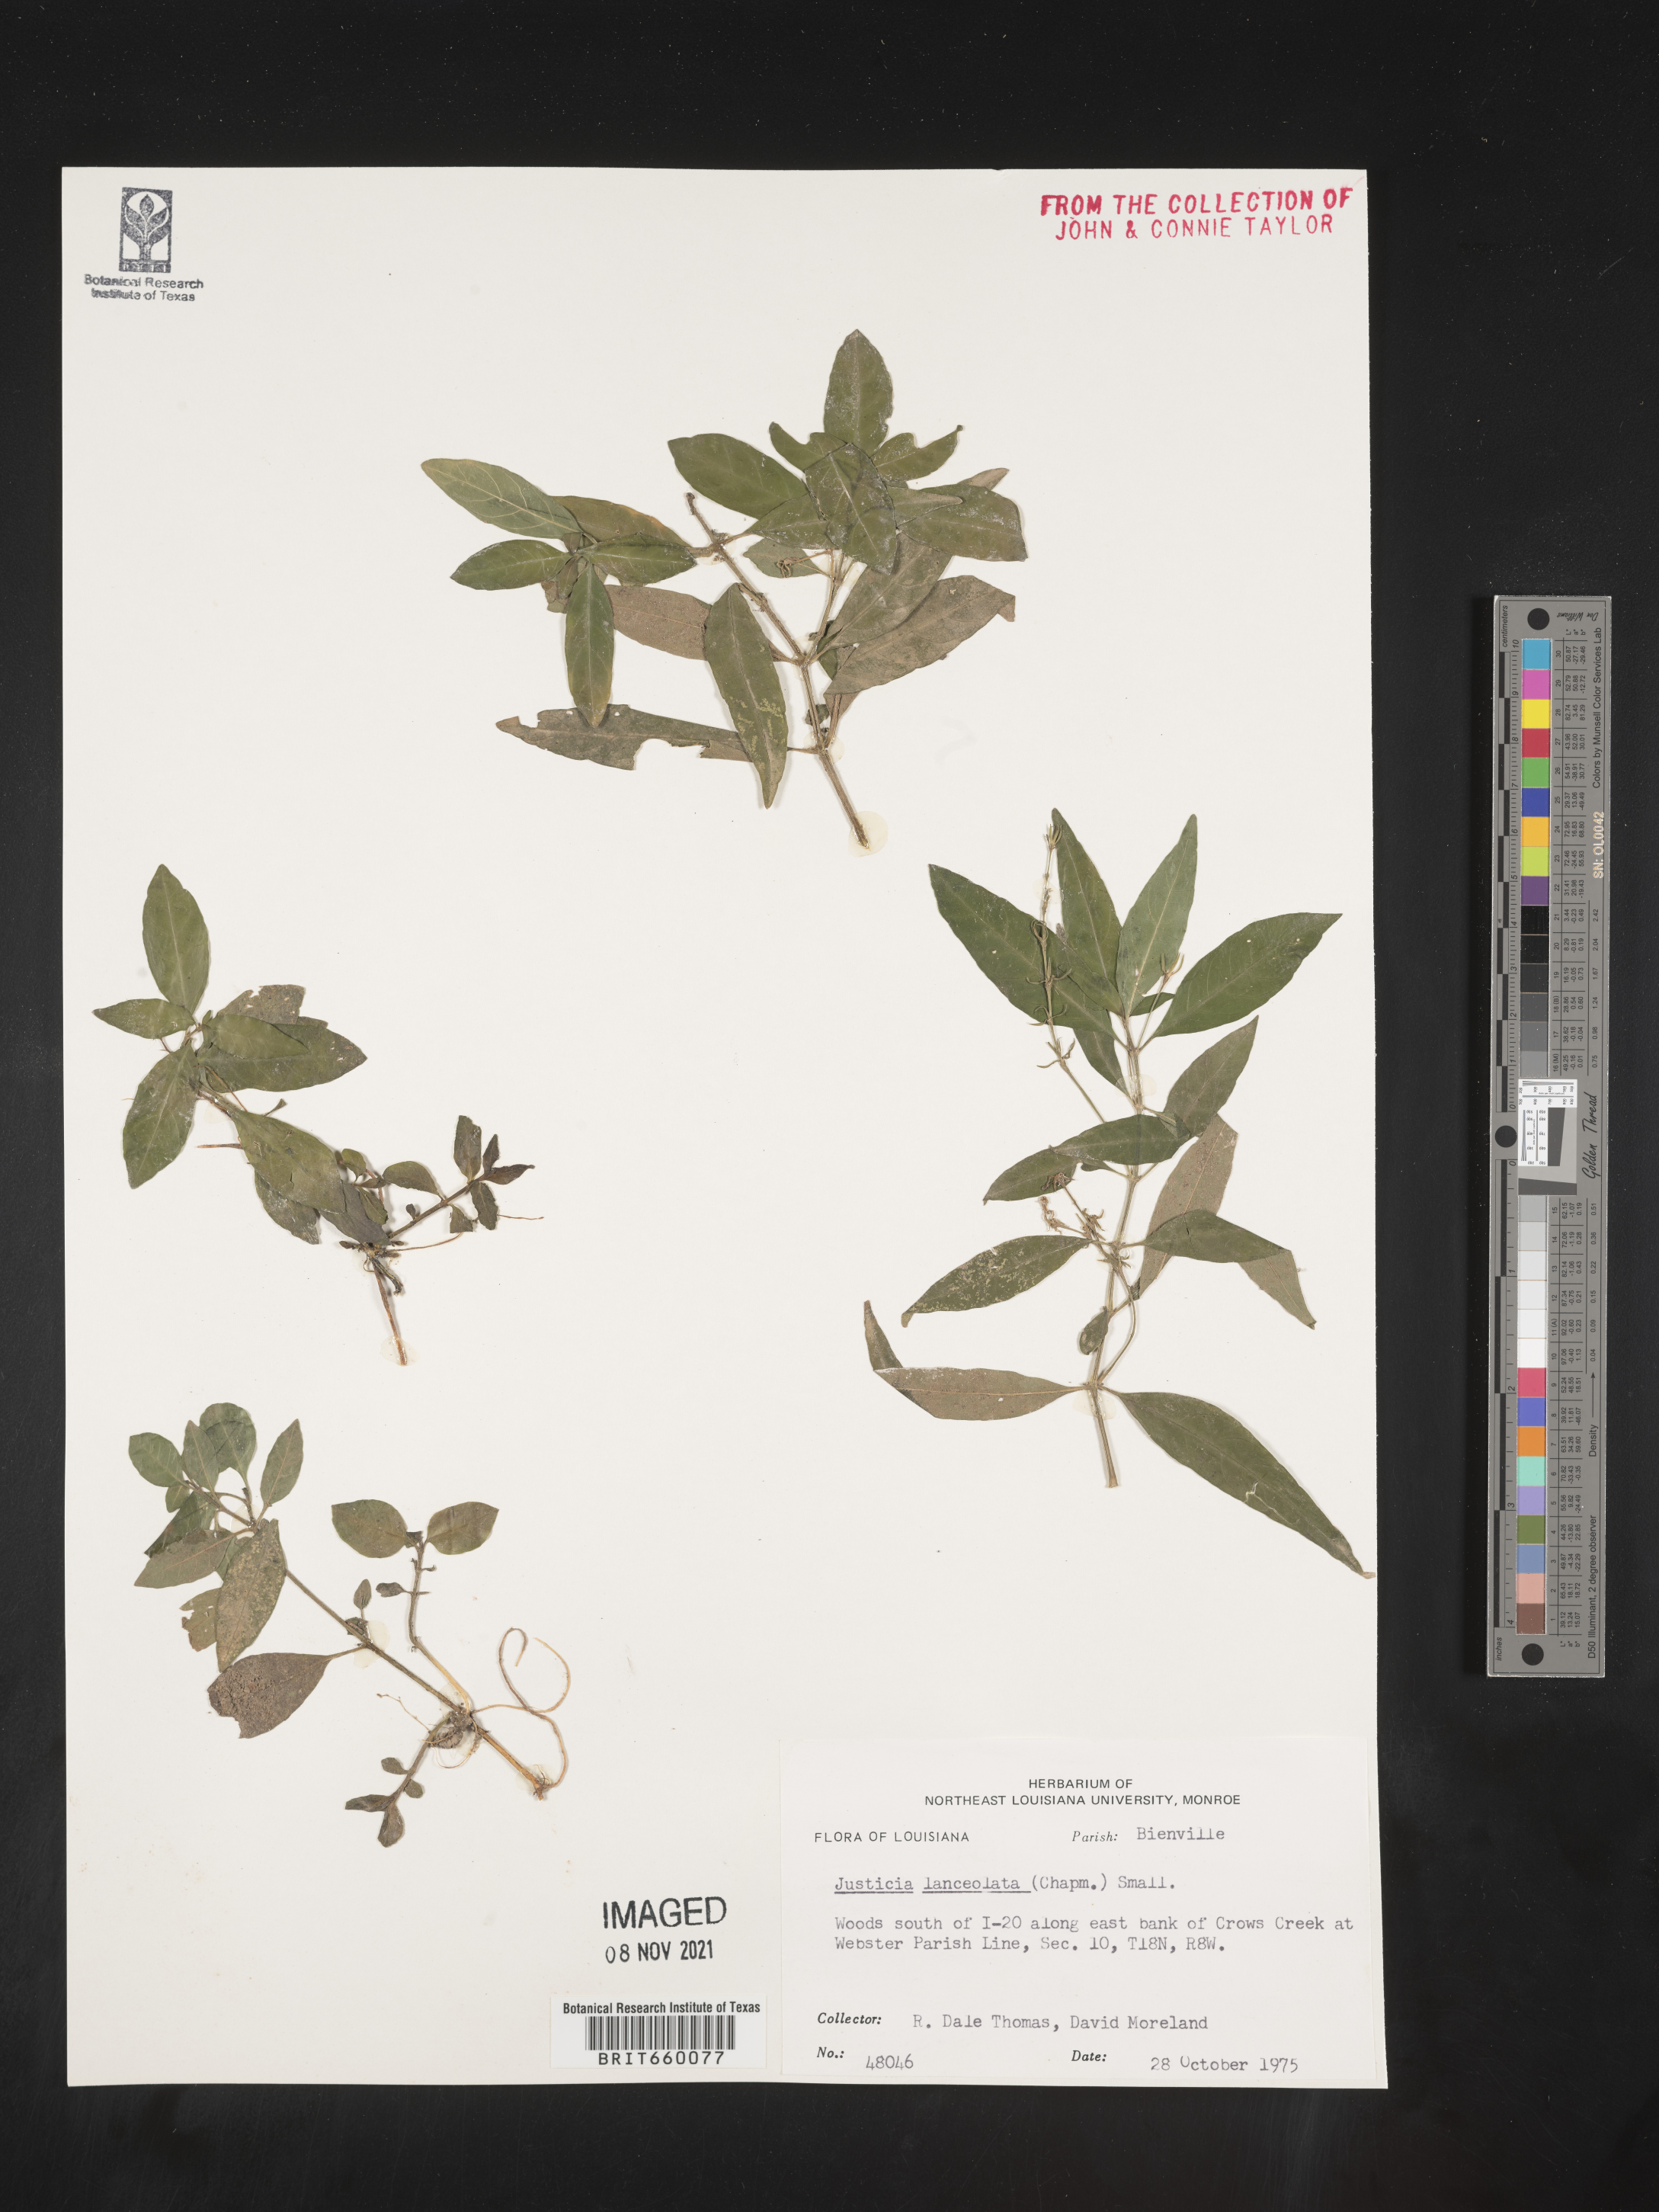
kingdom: Plantae
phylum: Tracheophyta
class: Magnoliopsida
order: Lamiales
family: Acanthaceae
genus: Justicia
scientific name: Justicia lanceolata
